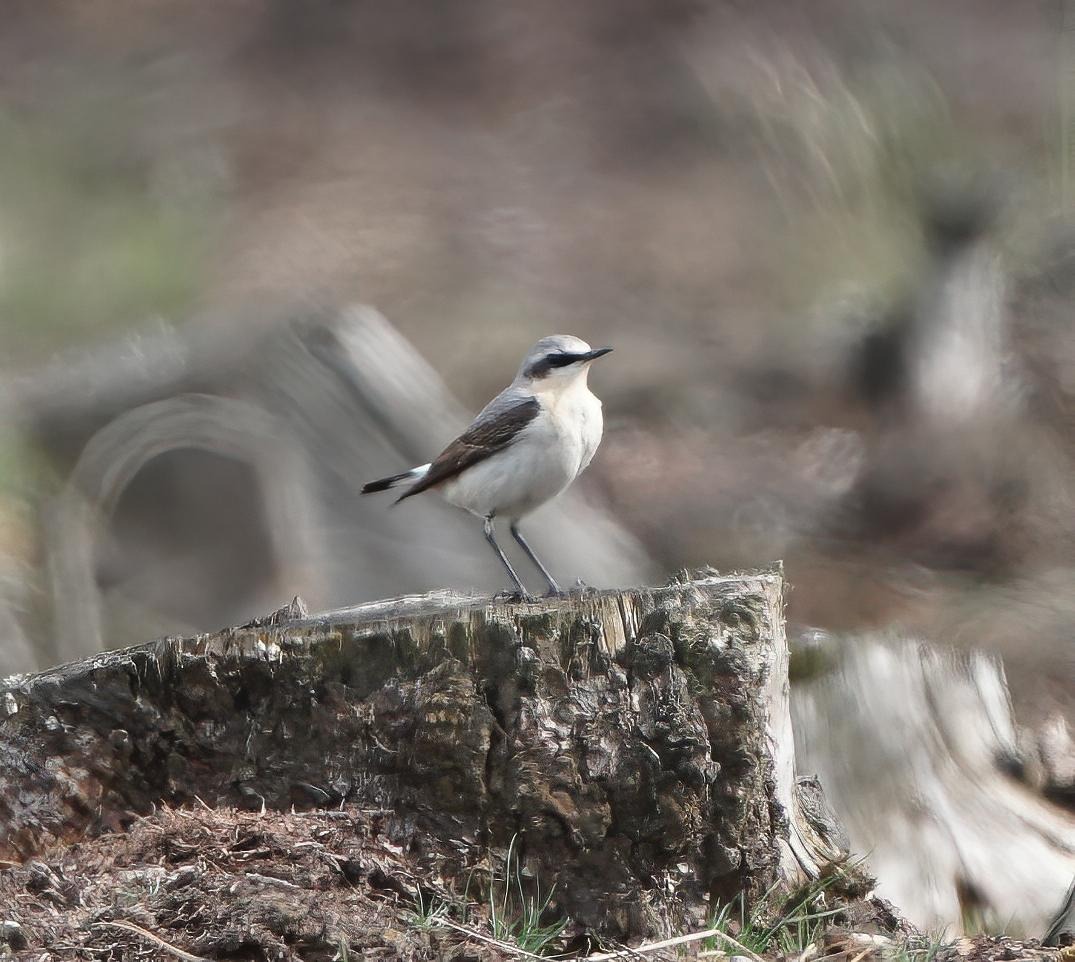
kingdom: Animalia
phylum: Chordata
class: Aves
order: Passeriformes
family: Muscicapidae
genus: Oenanthe
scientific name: Oenanthe oenanthe
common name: Stenpikker
